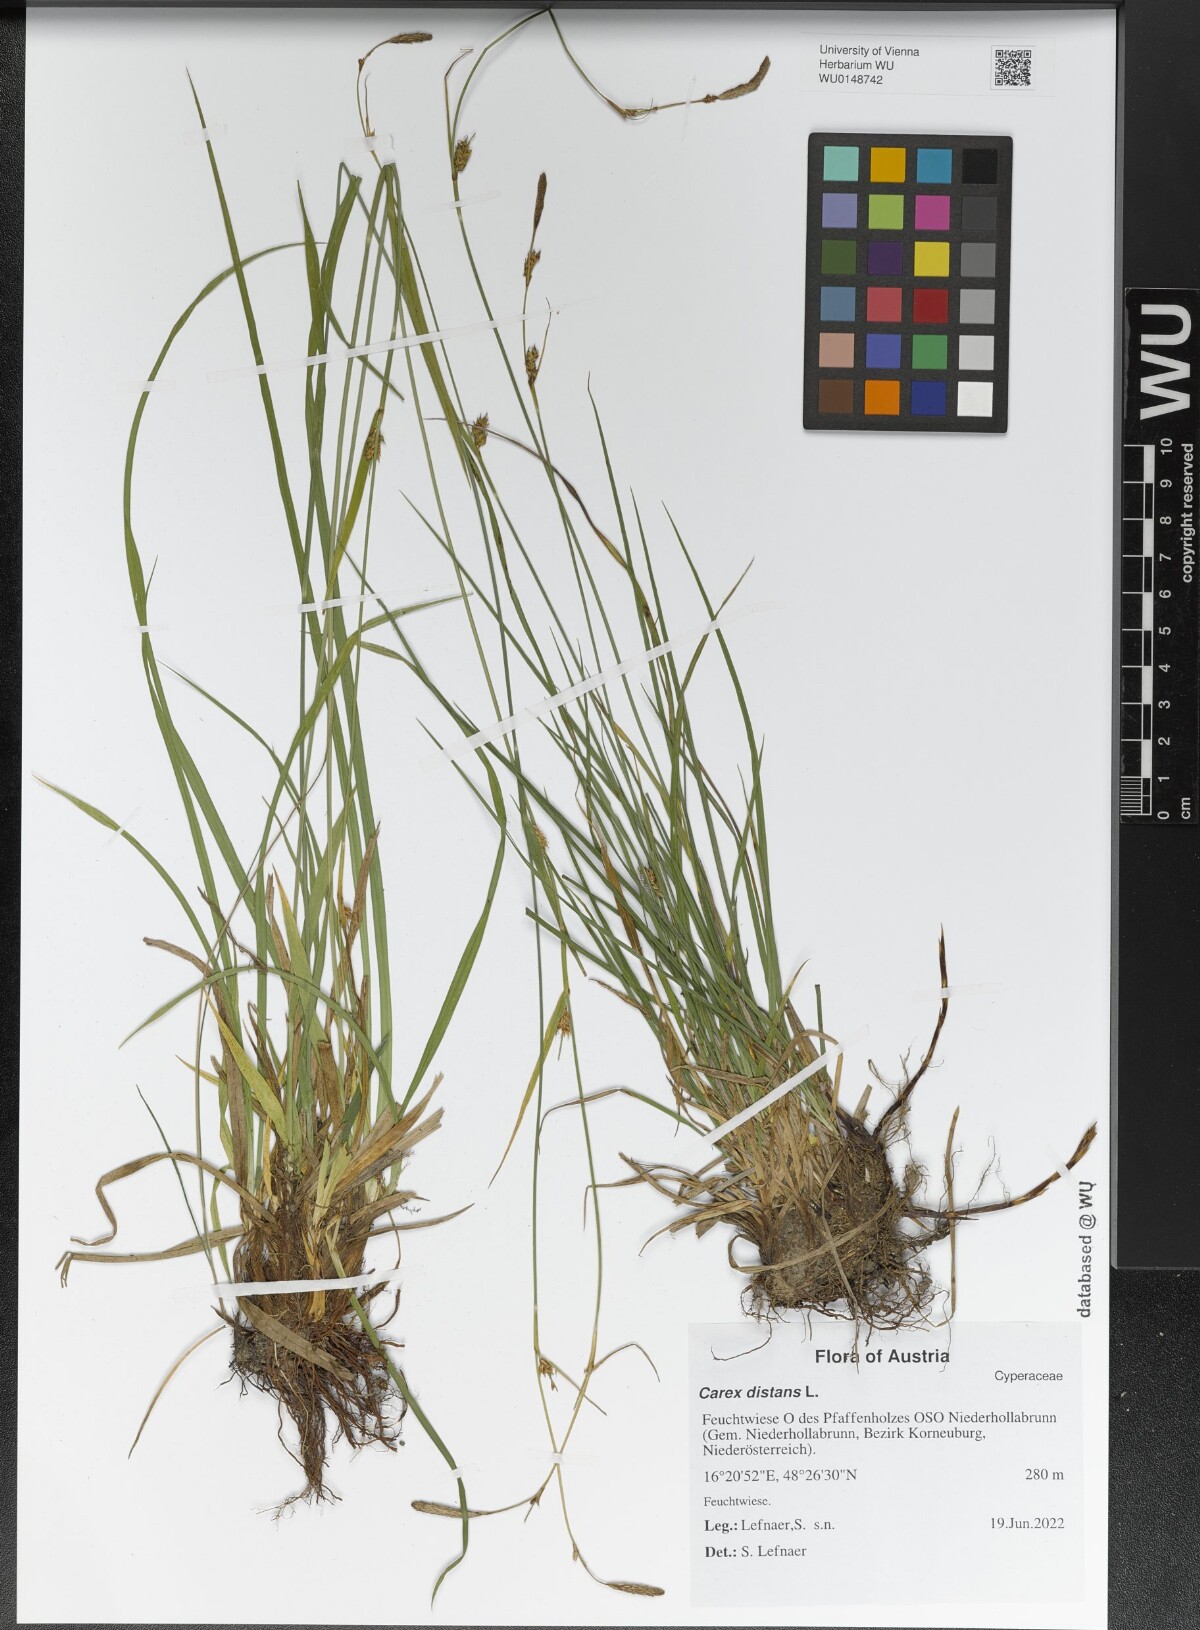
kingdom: Plantae
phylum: Tracheophyta
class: Liliopsida
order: Poales
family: Cyperaceae
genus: Carex
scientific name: Carex distans
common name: Distant sedge
